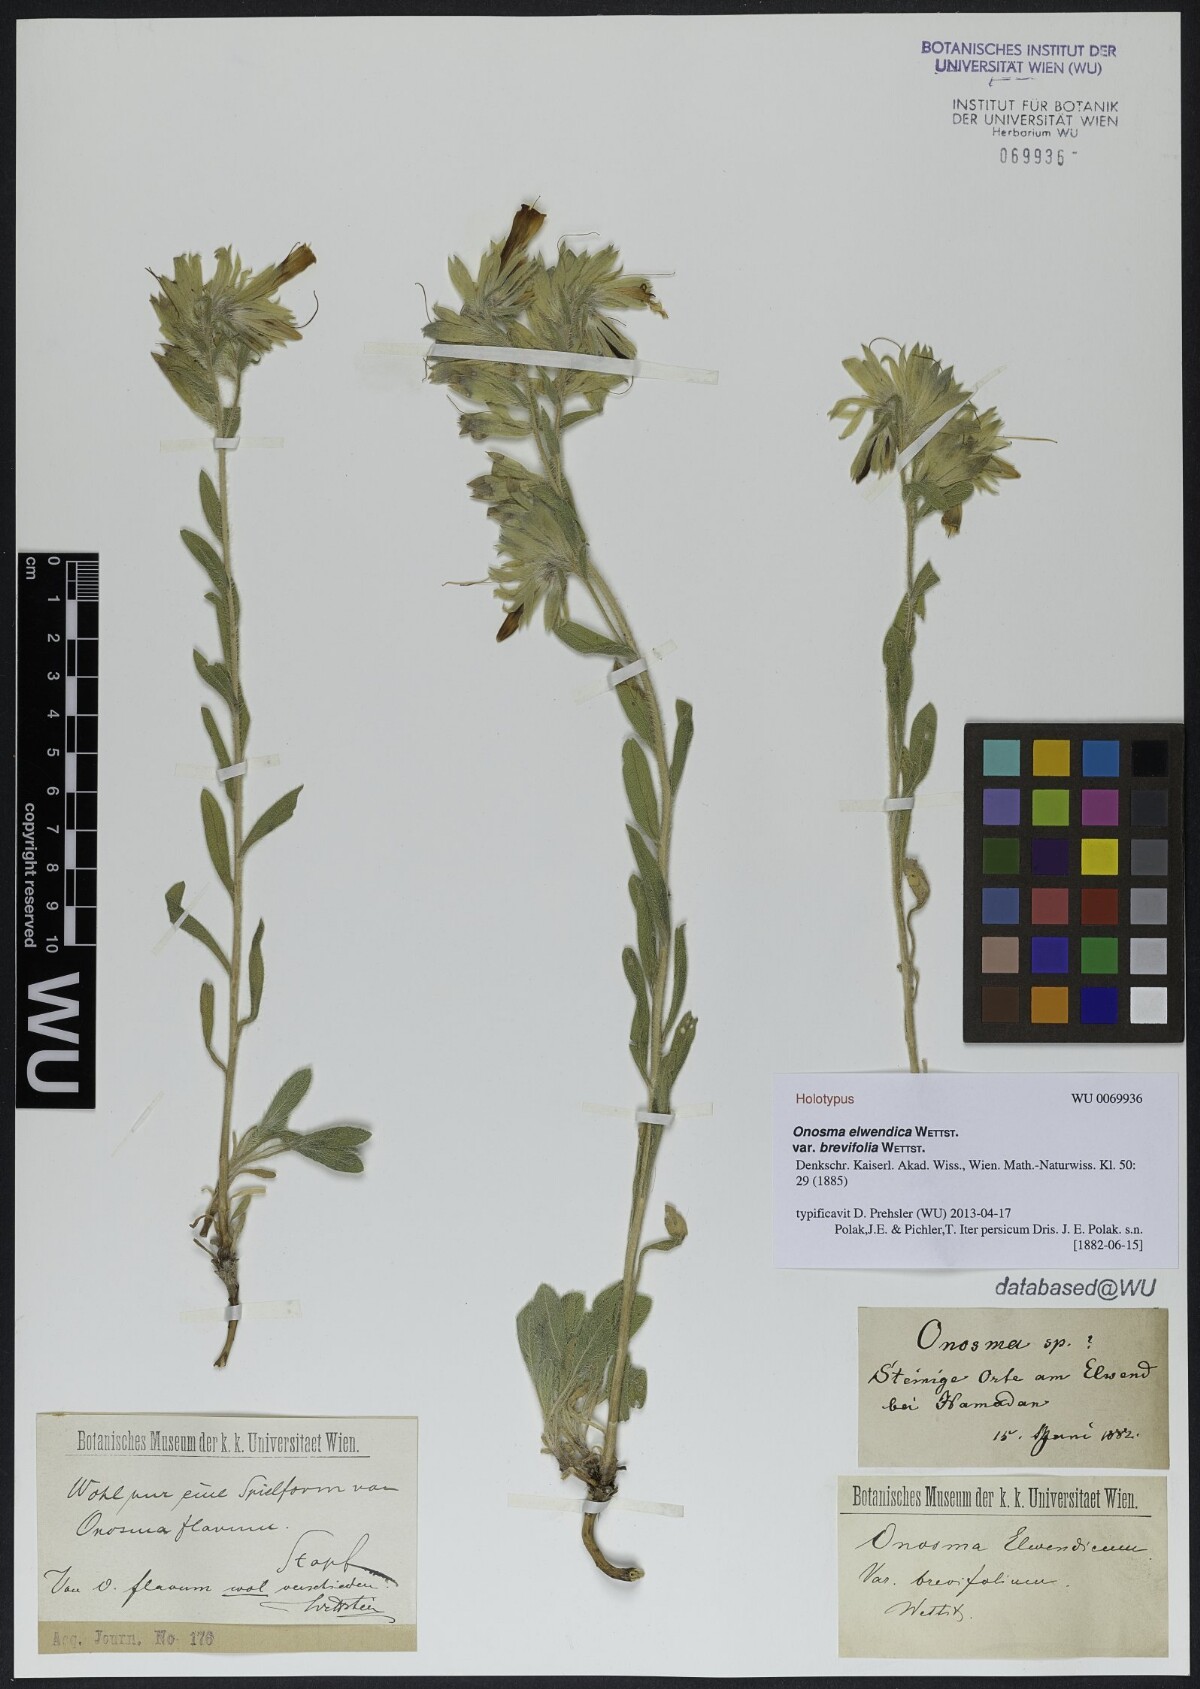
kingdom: Plantae
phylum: Tracheophyta
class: Magnoliopsida
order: Boraginales
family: Boraginaceae
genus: Onosma
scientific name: Onosma elwendica
